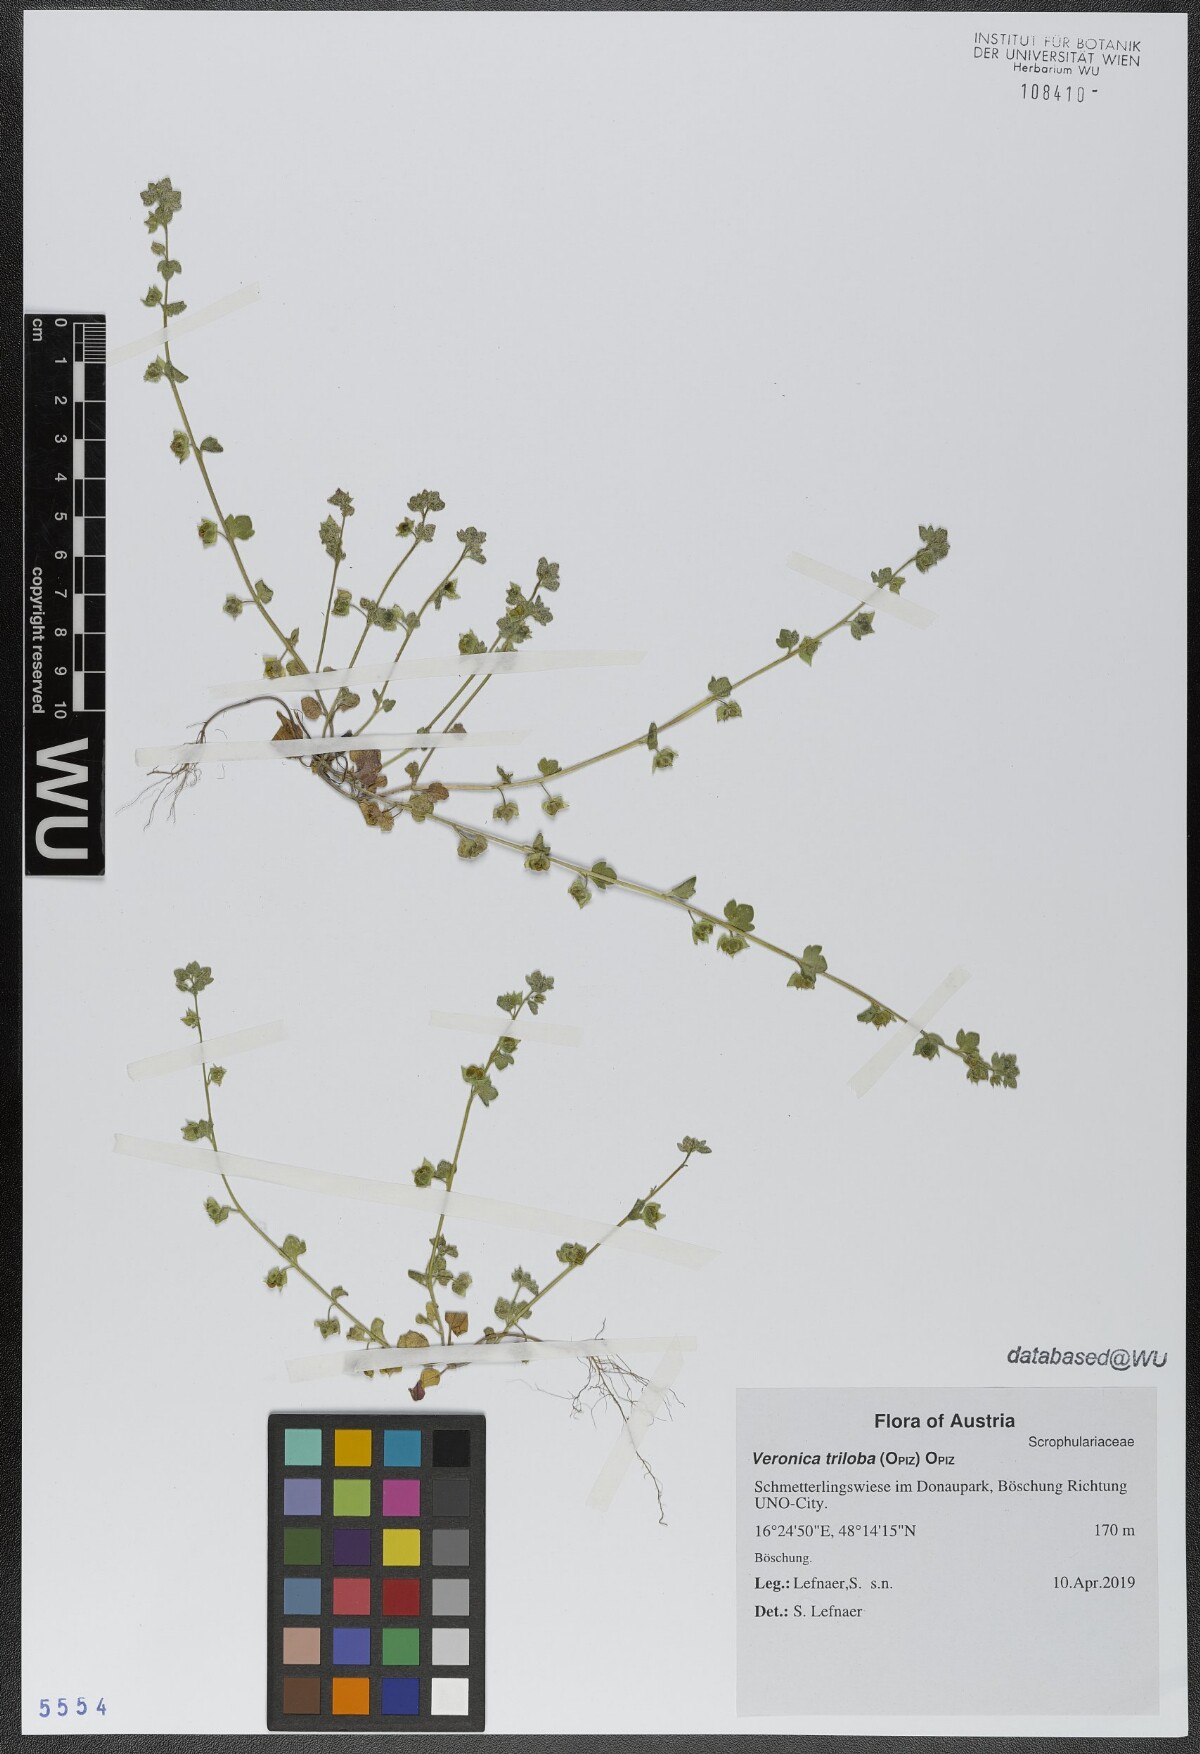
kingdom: Plantae
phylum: Tracheophyta
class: Magnoliopsida
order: Lamiales
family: Plantaginaceae
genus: Veronica
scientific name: Veronica triloba
